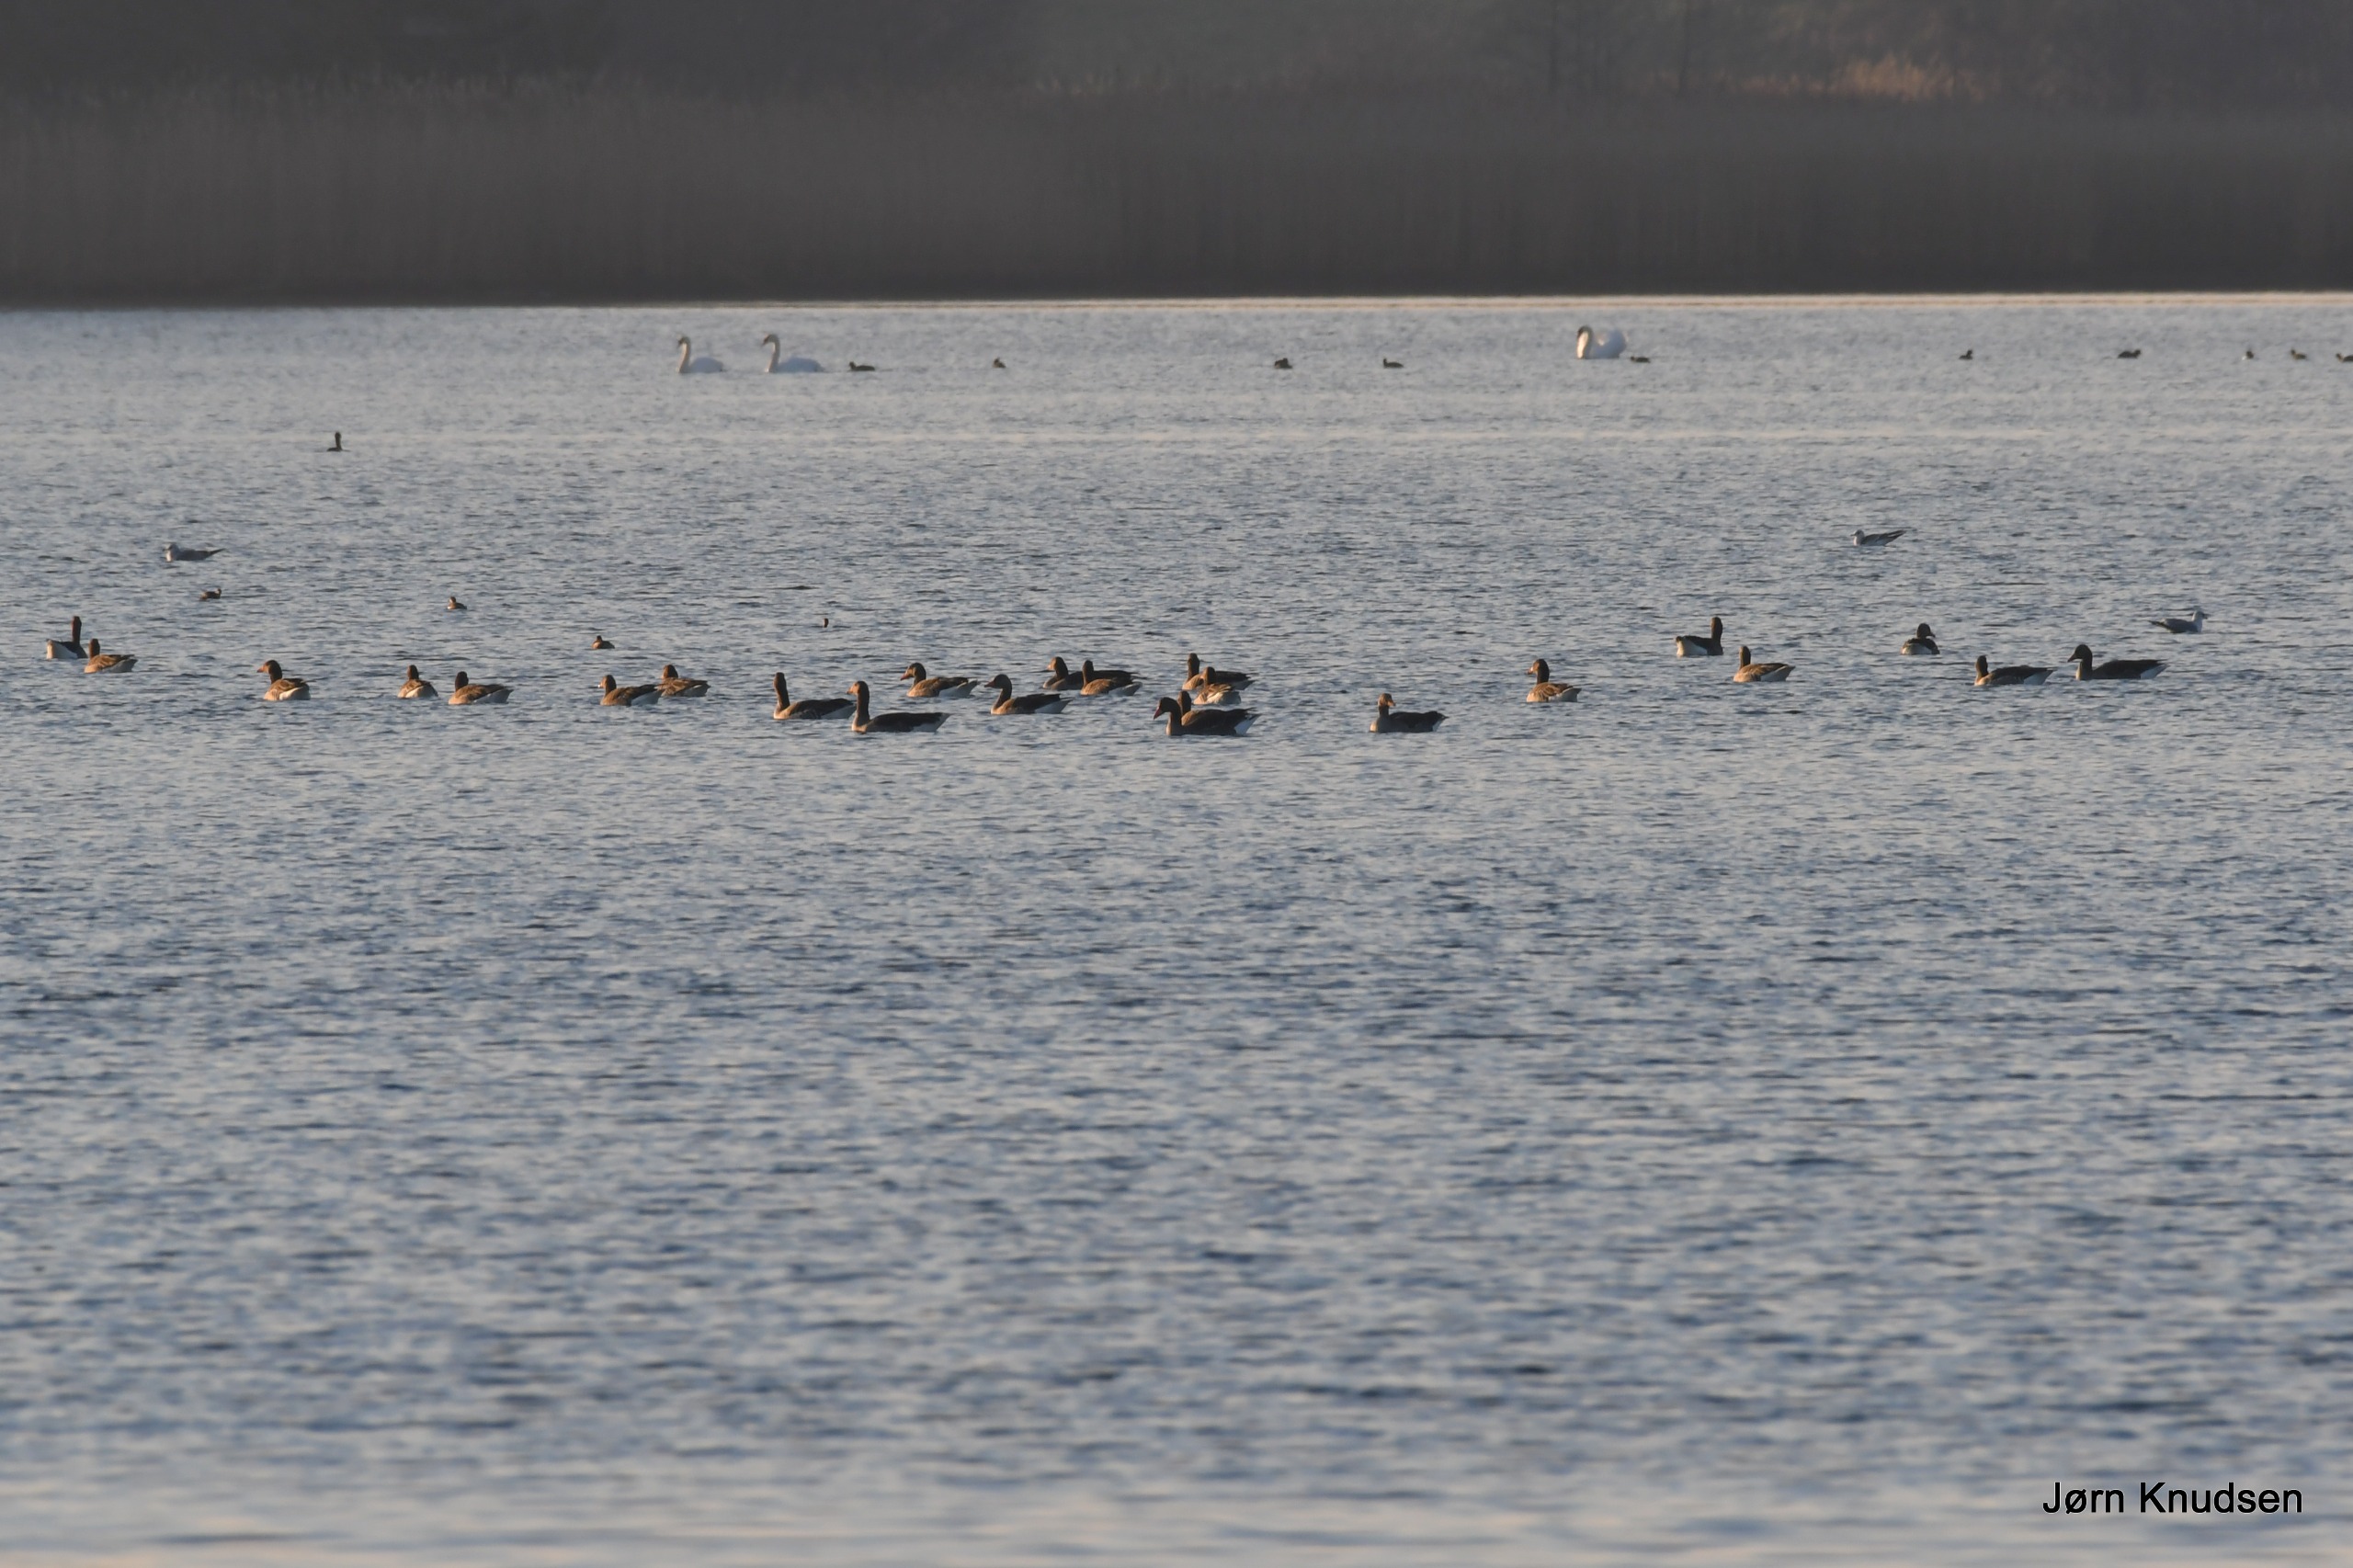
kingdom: Animalia
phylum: Chordata
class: Aves
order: Anseriformes
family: Anatidae
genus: Anser
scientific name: Anser anser
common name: Grågås
